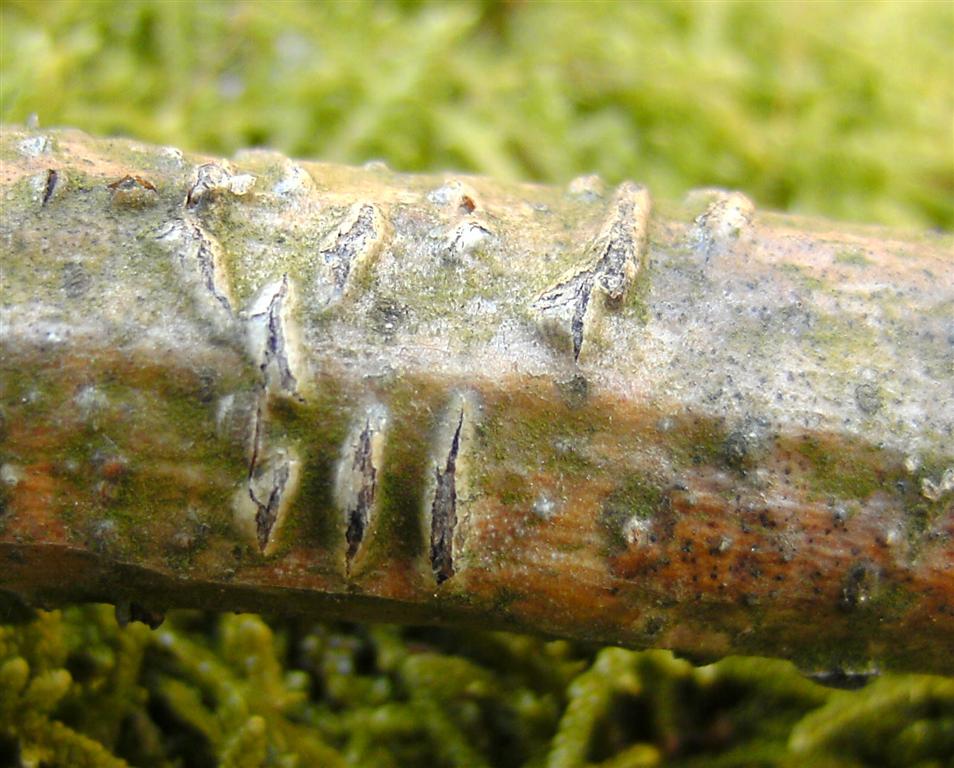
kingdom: Fungi
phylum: Ascomycota
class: Leotiomycetes
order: Rhytismatales
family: Rhytismataceae
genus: Colpoma
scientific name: Colpoma quercinum
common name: ege-sprækkeskive
